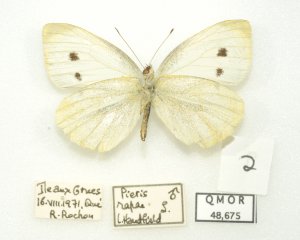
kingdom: Animalia
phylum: Arthropoda
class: Insecta
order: Lepidoptera
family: Pieridae
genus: Pieris
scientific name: Pieris rapae
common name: Cabbage White
